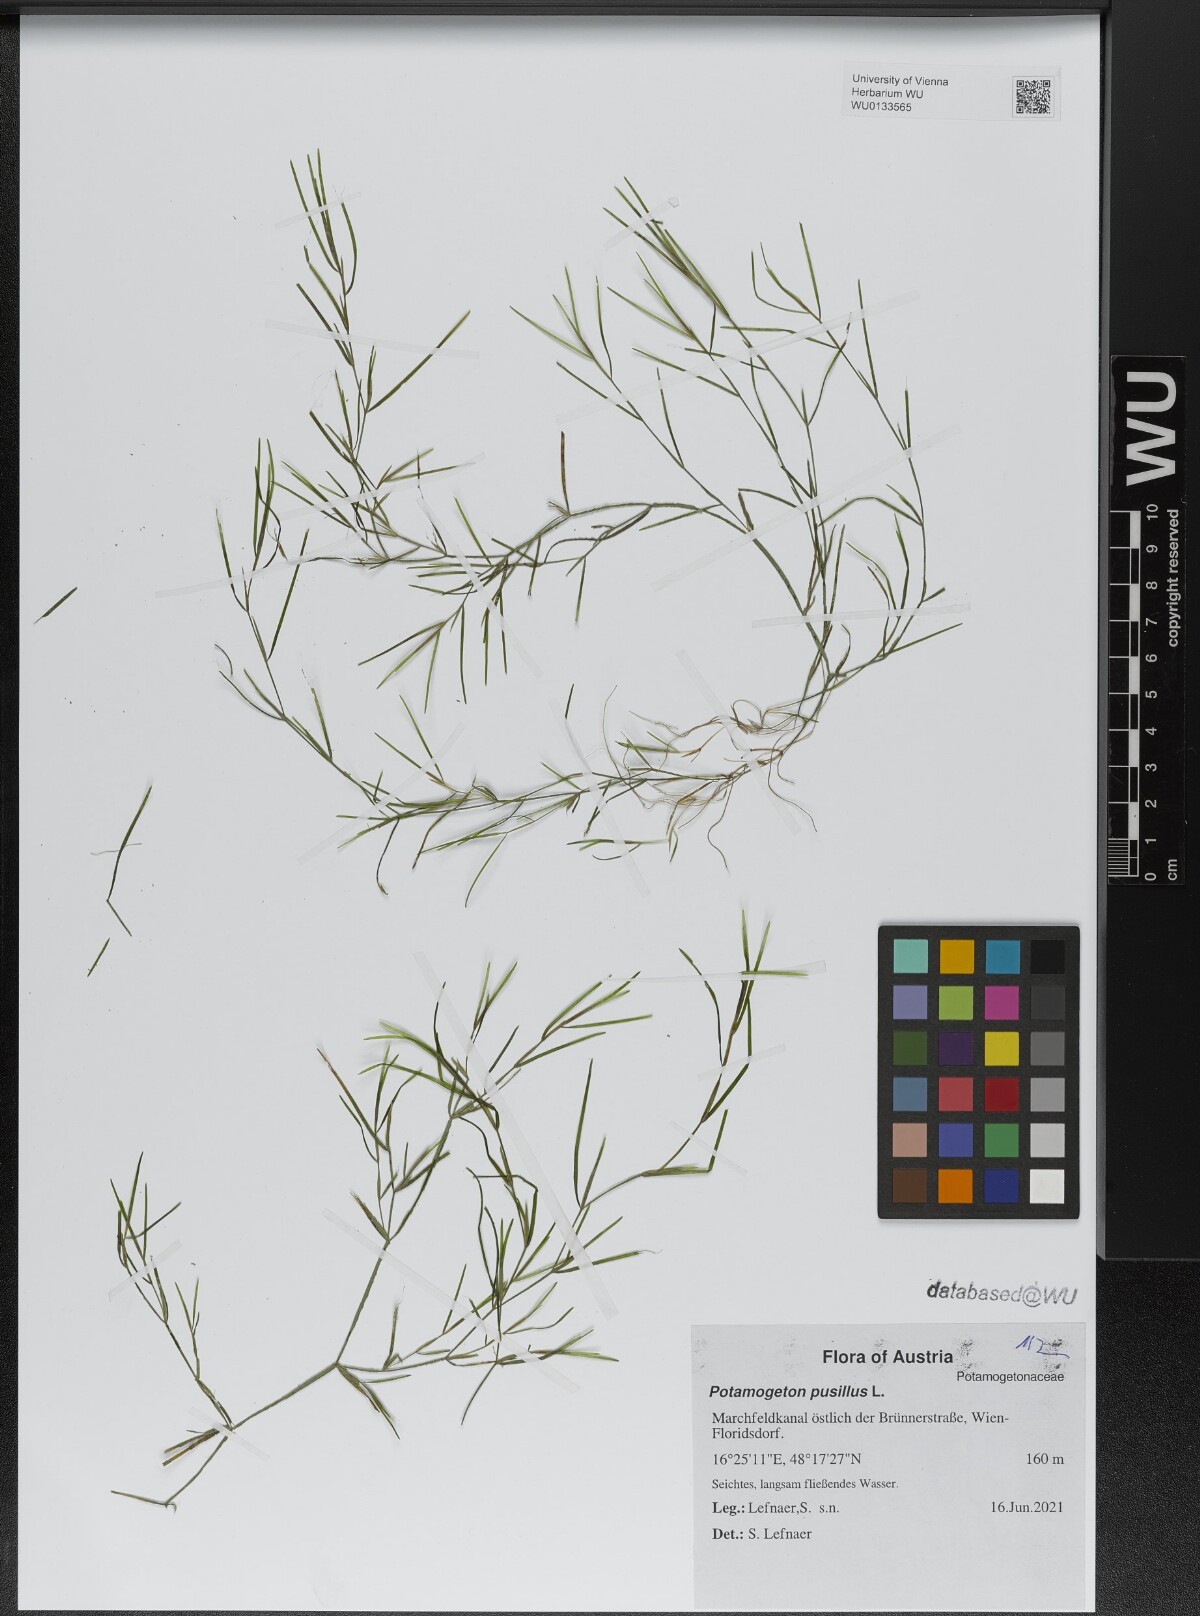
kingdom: Plantae
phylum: Tracheophyta
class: Liliopsida
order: Alismatales
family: Potamogetonaceae
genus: Potamogeton
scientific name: Potamogeton pusillus
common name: Lesser pondweed
